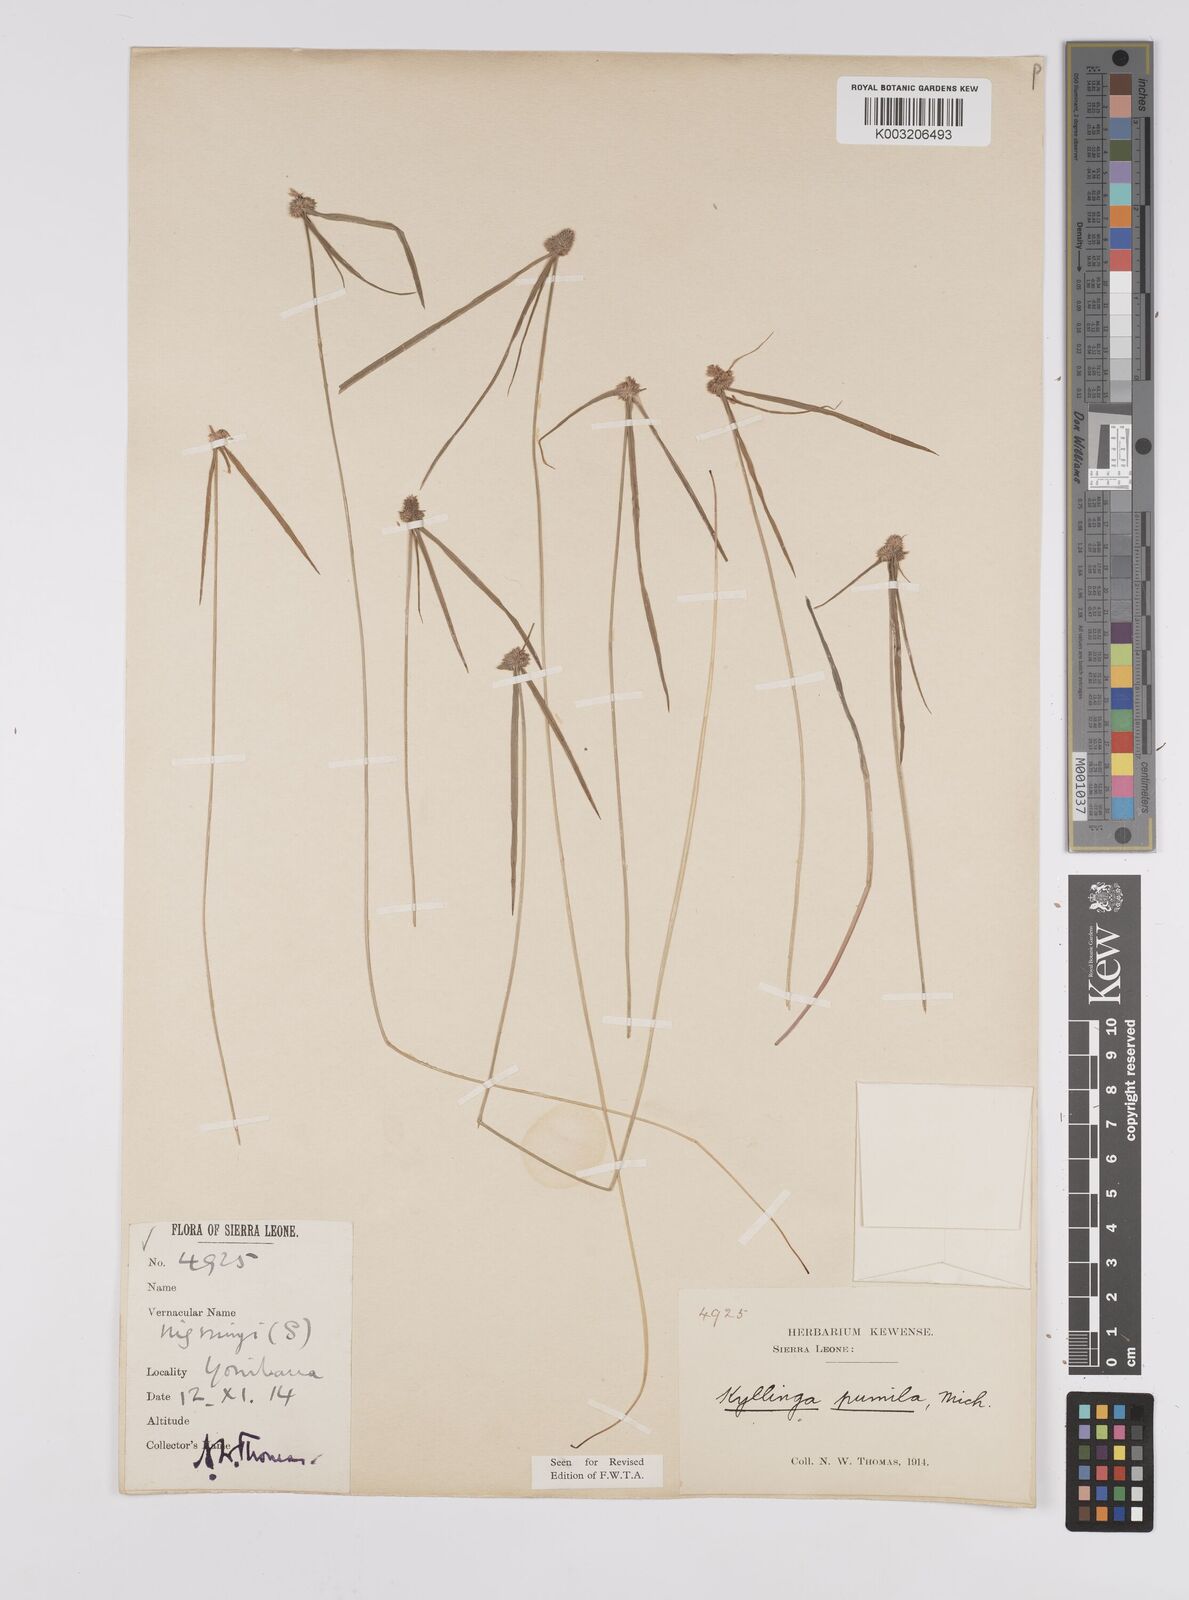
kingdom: Plantae
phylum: Tracheophyta
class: Liliopsida
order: Poales
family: Cyperaceae
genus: Cyperus
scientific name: Cyperus
